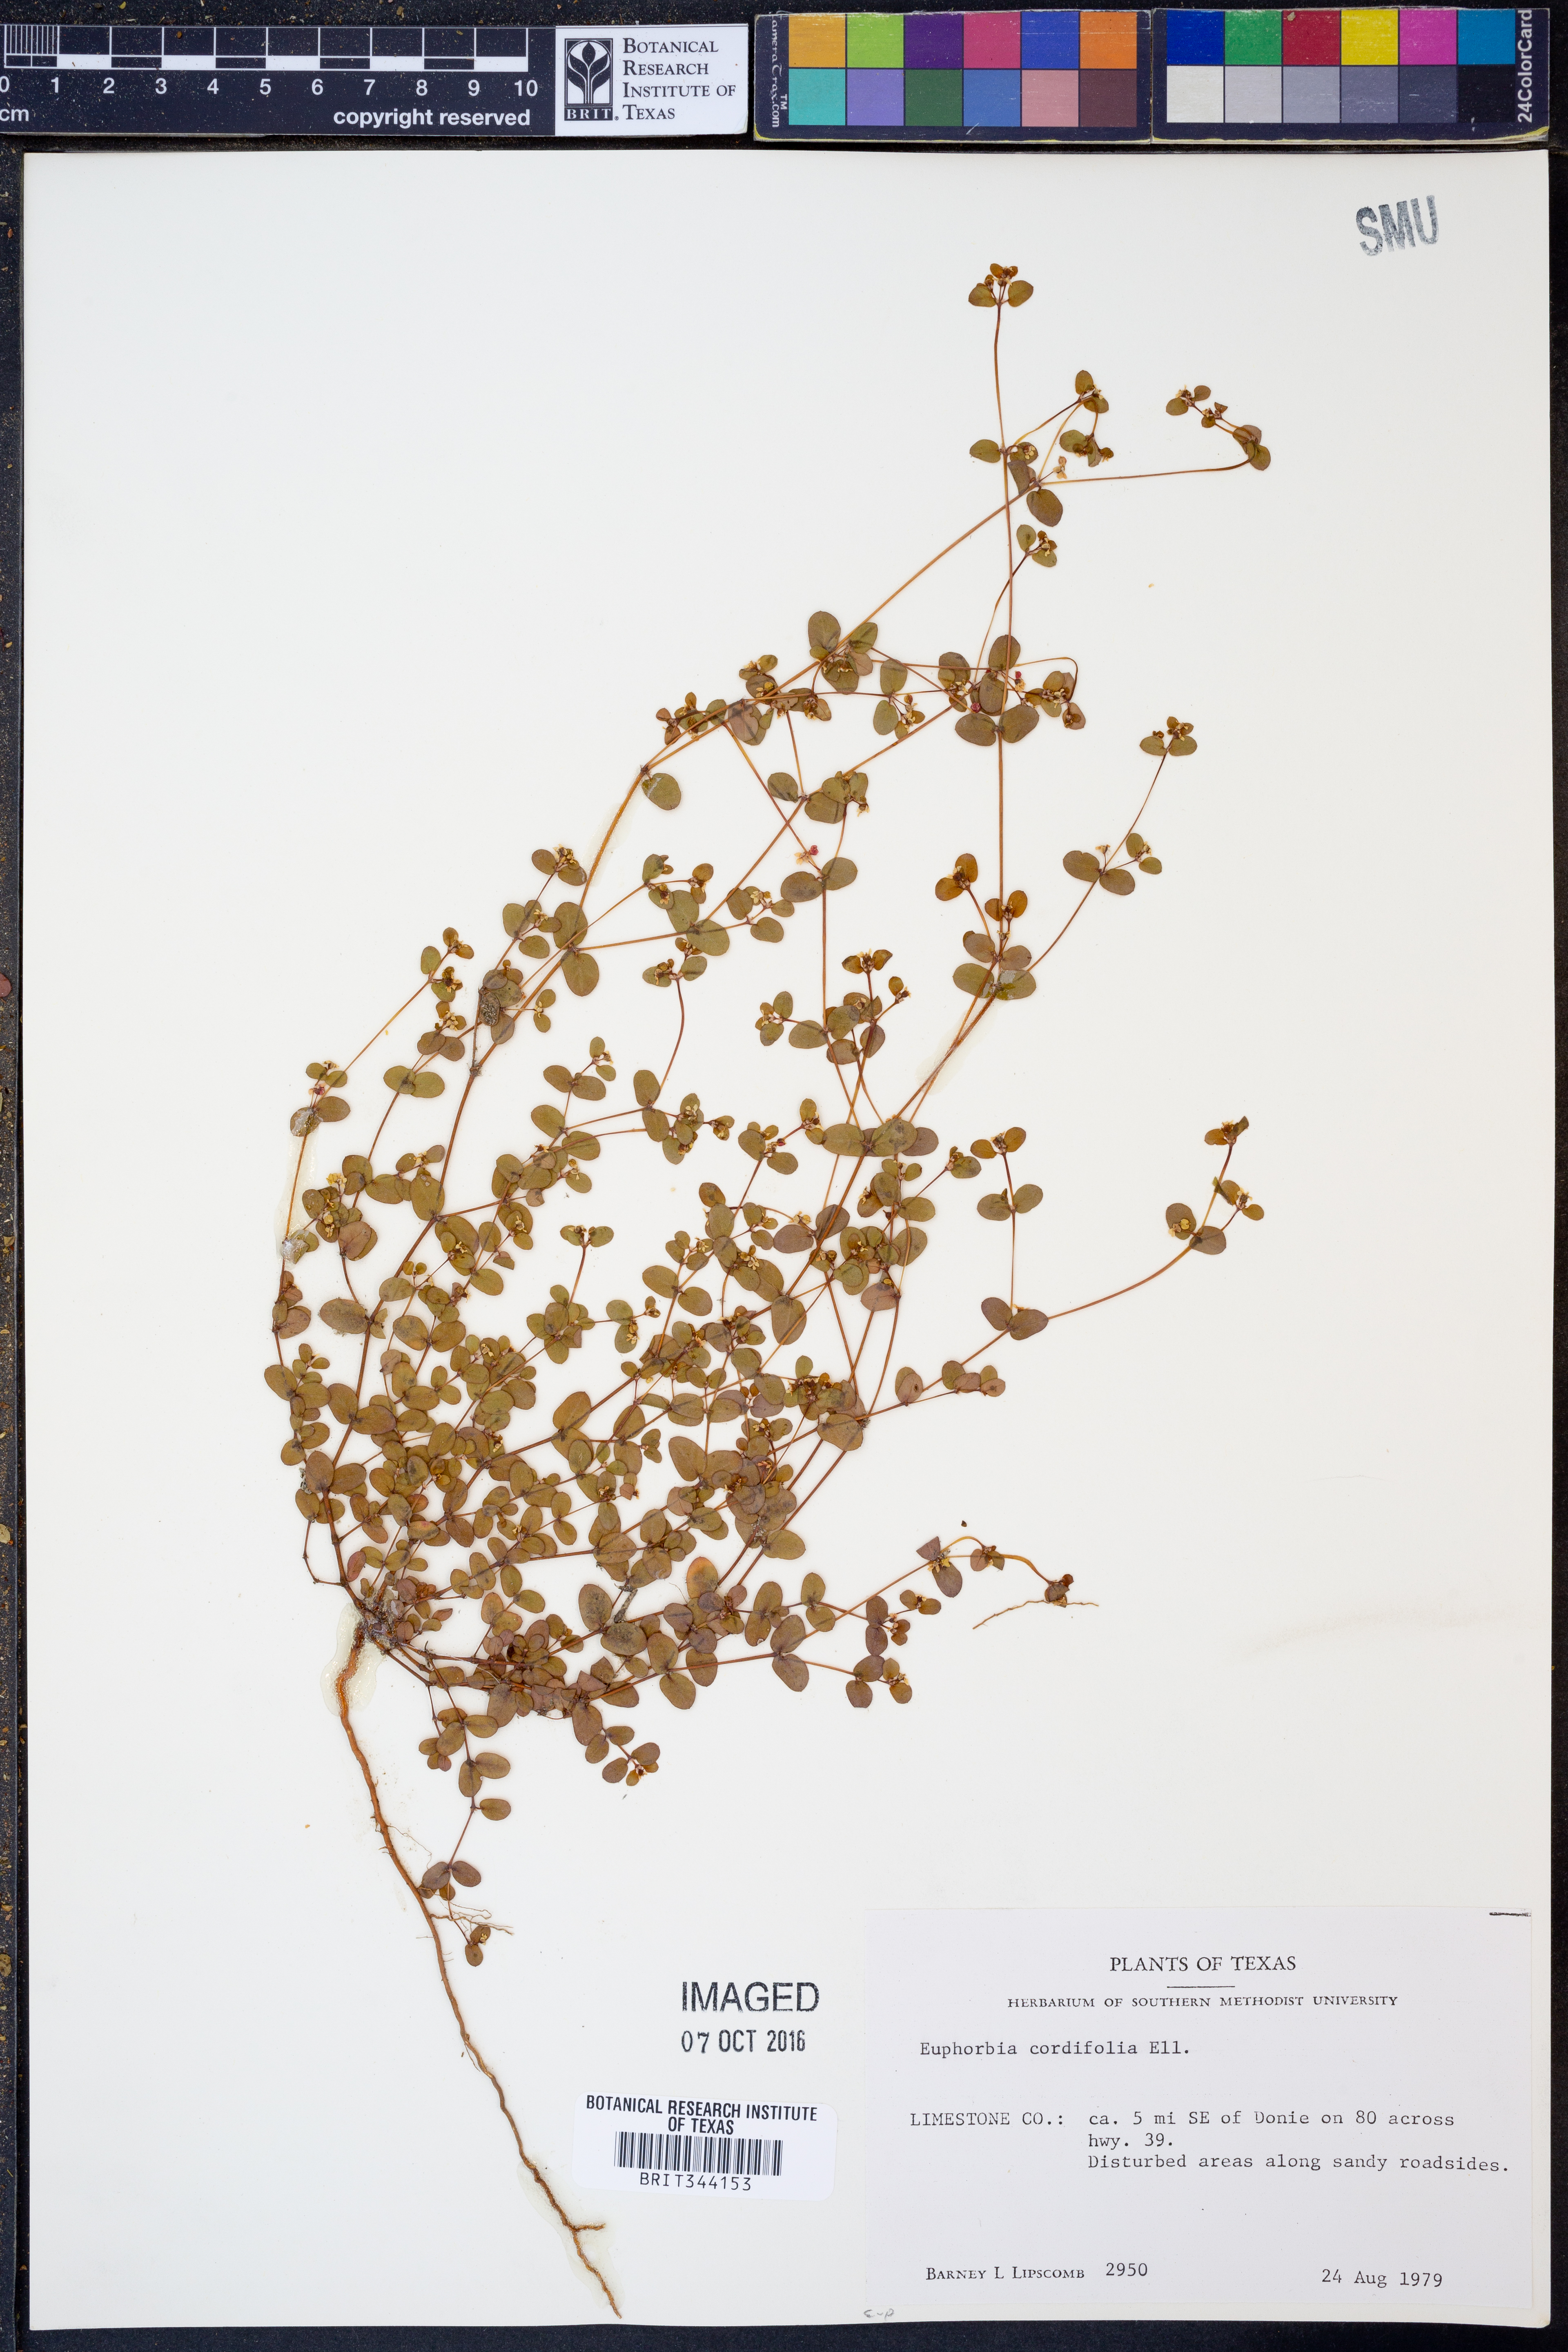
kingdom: Plantae
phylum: Tracheophyta
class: Magnoliopsida
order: Malpighiales
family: Euphorbiaceae
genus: Euphorbia
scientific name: Euphorbia cordifolia
